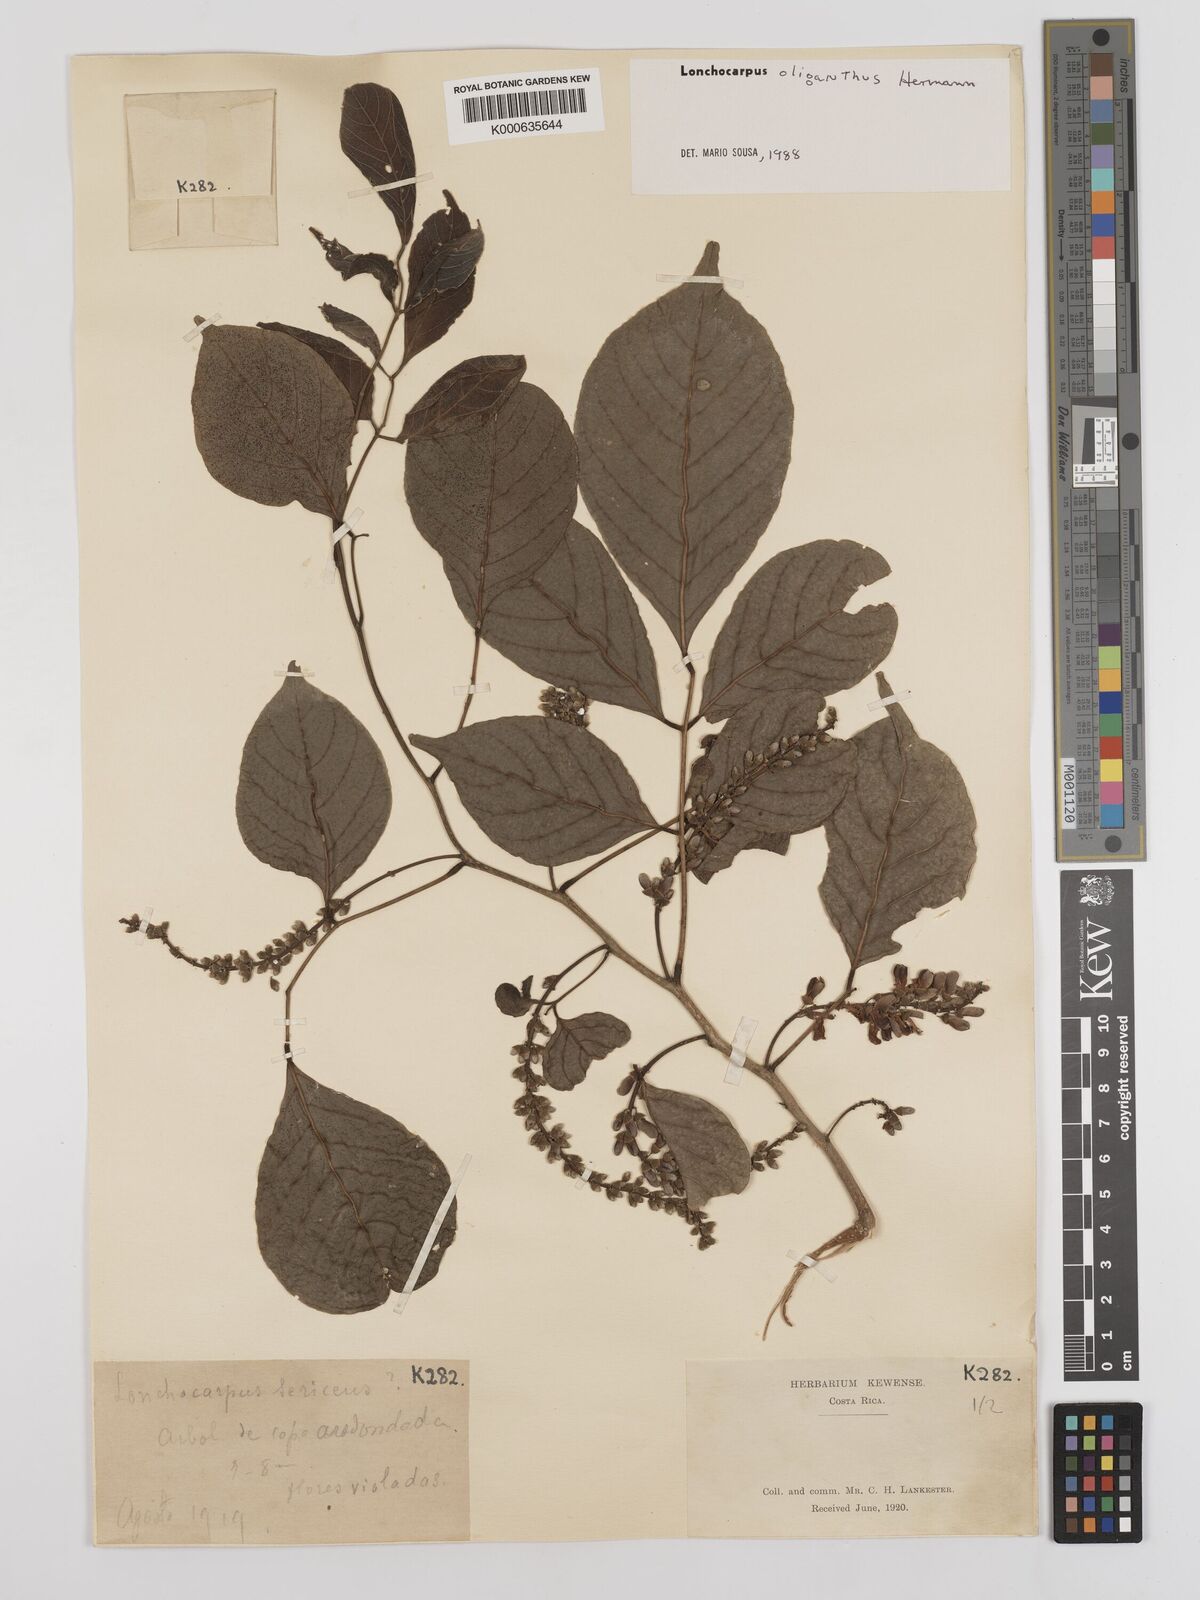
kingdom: Plantae
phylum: Tracheophyta
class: Magnoliopsida
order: Fabales
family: Fabaceae
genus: Lonchocarpus
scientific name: Lonchocarpus oliganthus
